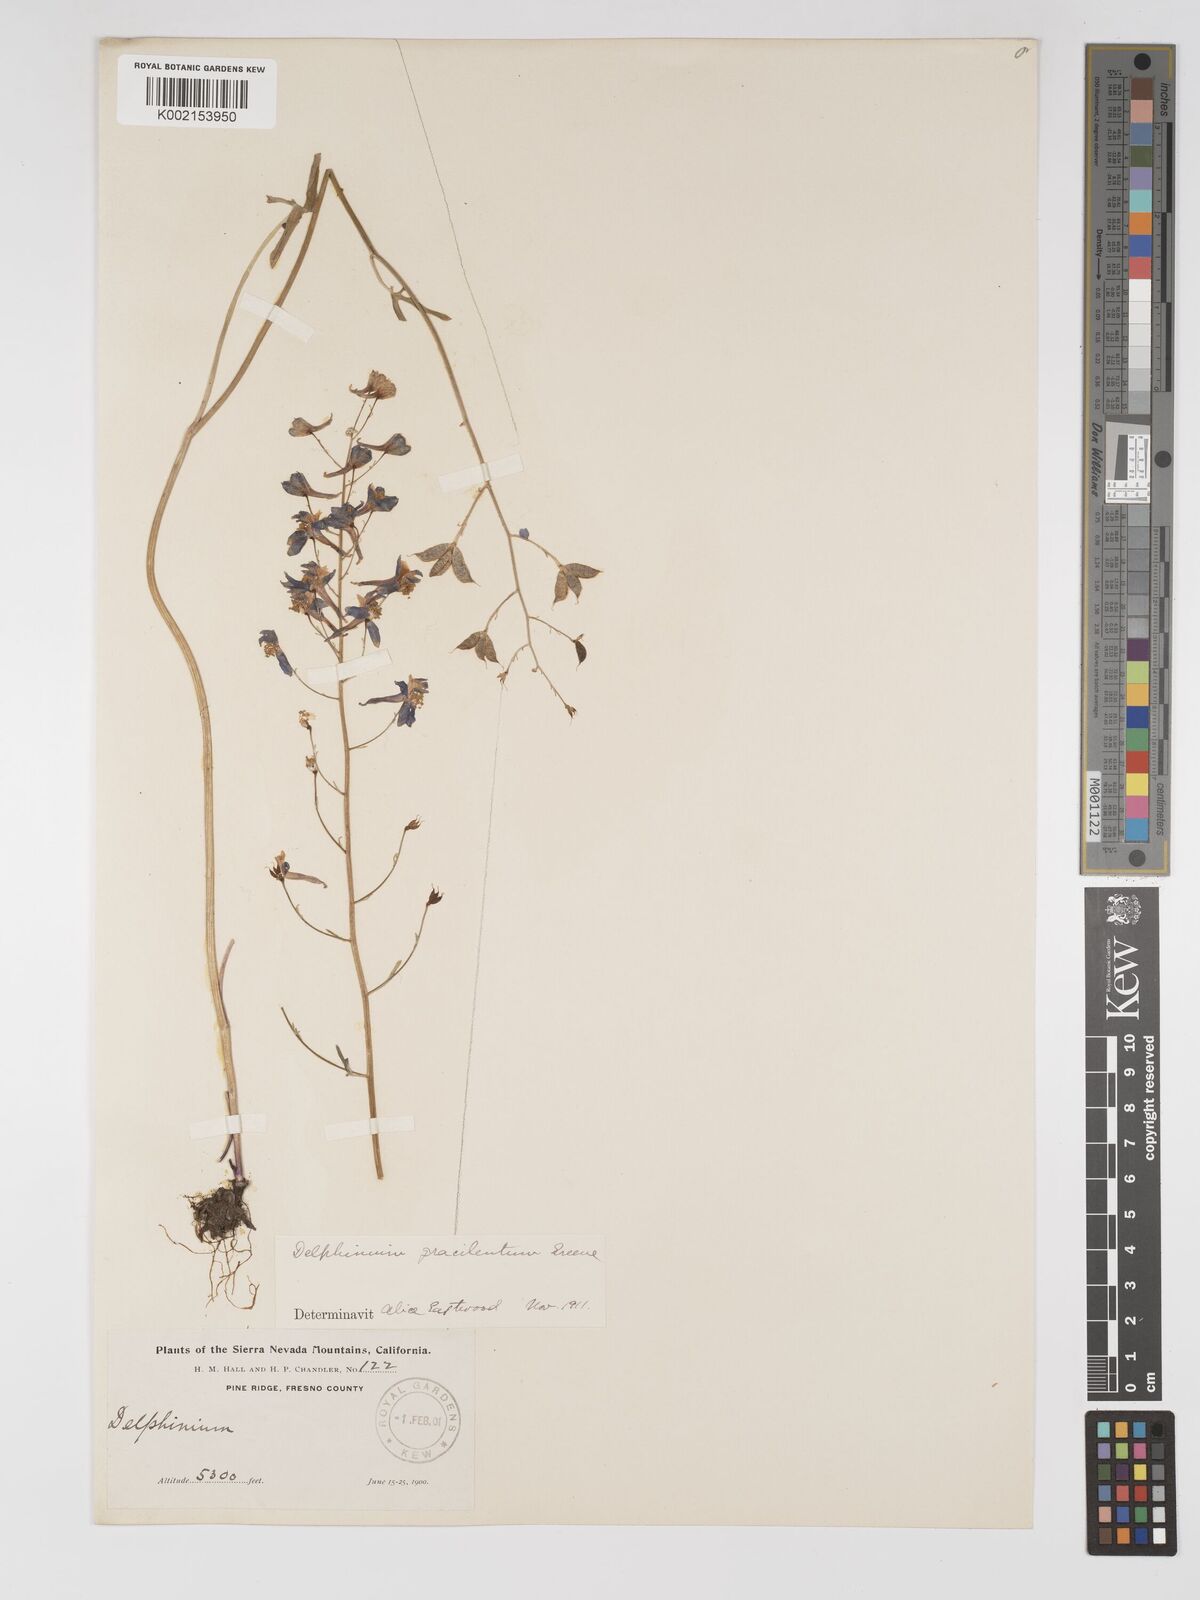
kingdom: Plantae
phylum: Tracheophyta
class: Magnoliopsida
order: Ranunculales
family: Ranunculaceae
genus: Delphinium
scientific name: Delphinium gracilentum
